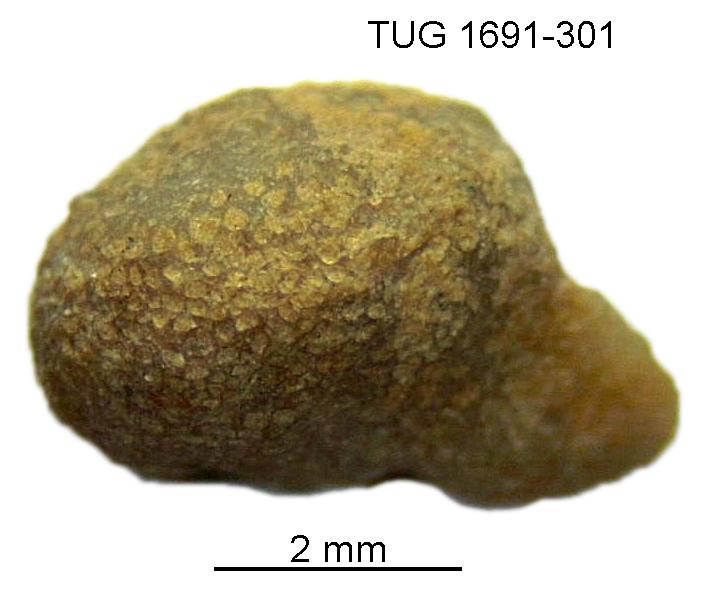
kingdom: Animalia
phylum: Bryozoa
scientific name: Bryozoa
